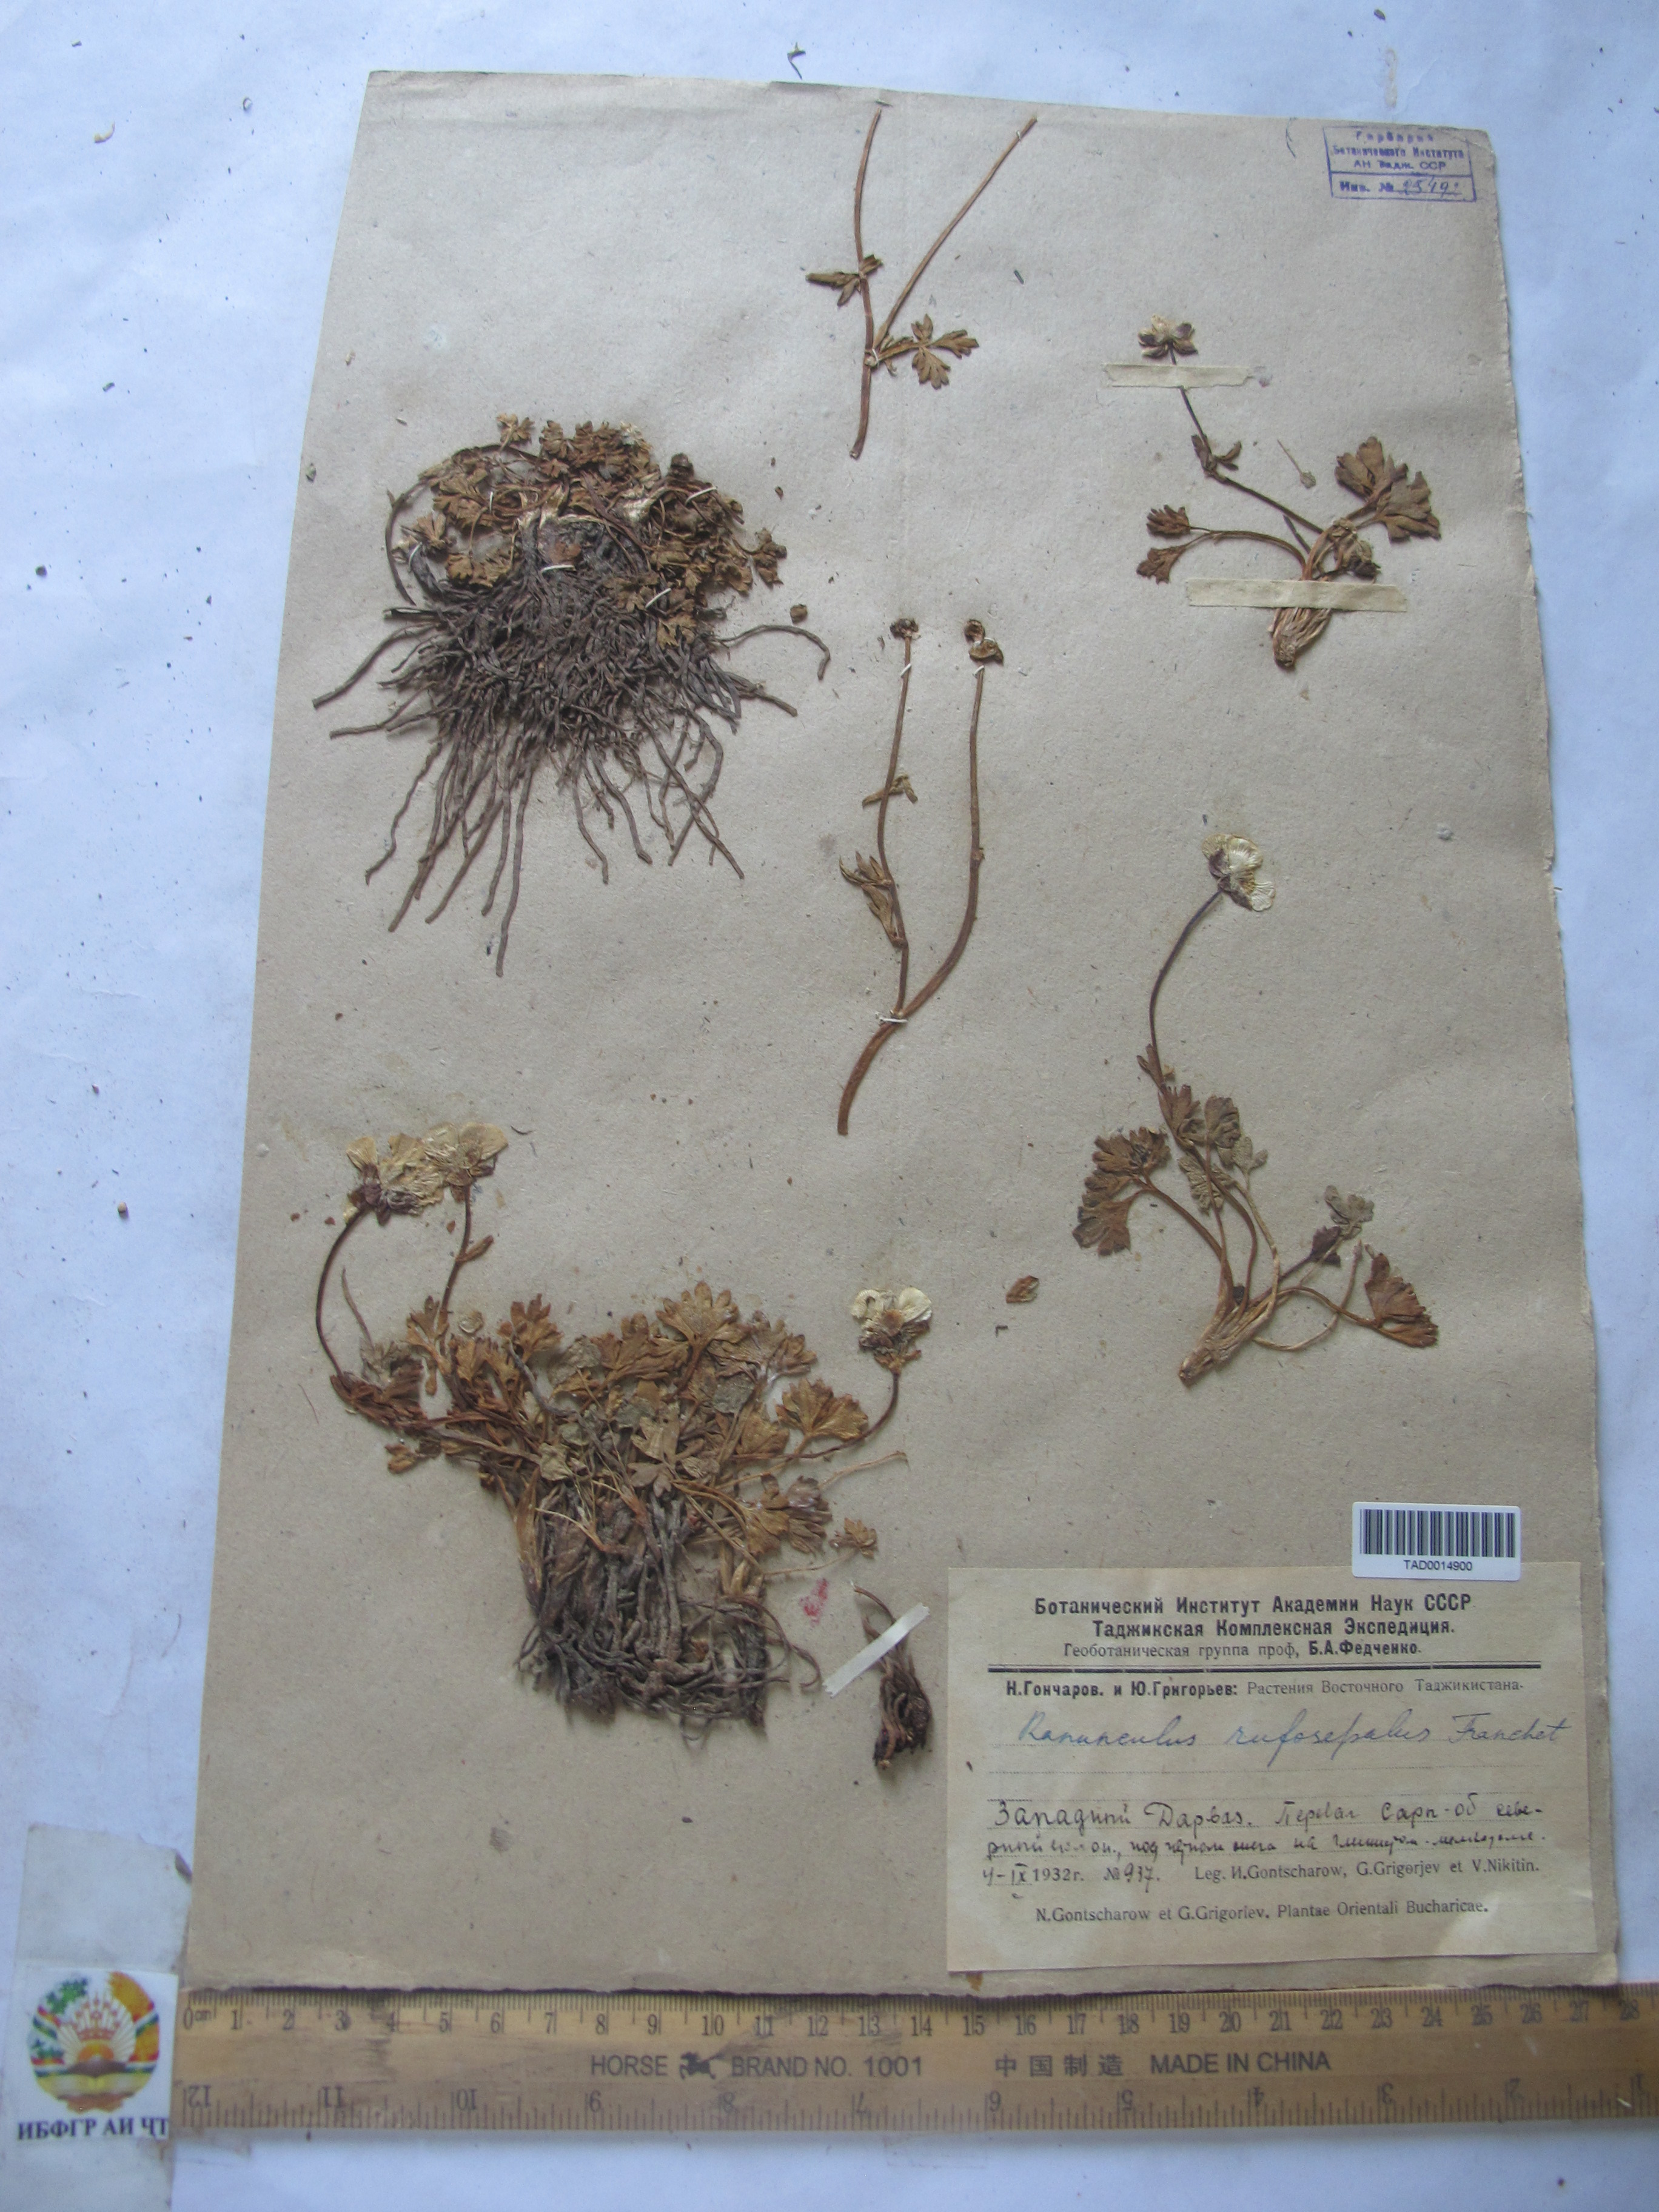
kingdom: Plantae
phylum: Tracheophyta
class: Magnoliopsida
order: Ranunculales
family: Ranunculaceae
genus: Ranunculus
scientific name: Ranunculus rufosepalus
